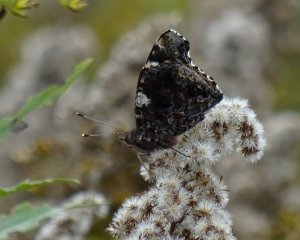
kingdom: Animalia
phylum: Arthropoda
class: Insecta
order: Lepidoptera
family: Nymphalidae
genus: Vanessa
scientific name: Vanessa atalanta
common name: Red Admiral
